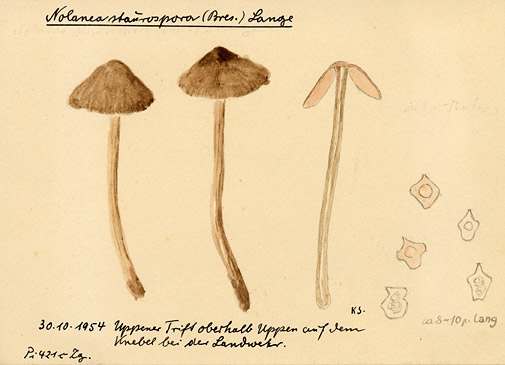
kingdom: Fungi
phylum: Basidiomycota
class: Agaricomycetes
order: Agaricales
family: Entolomataceae
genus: Entoloma
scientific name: Entoloma conferendum
